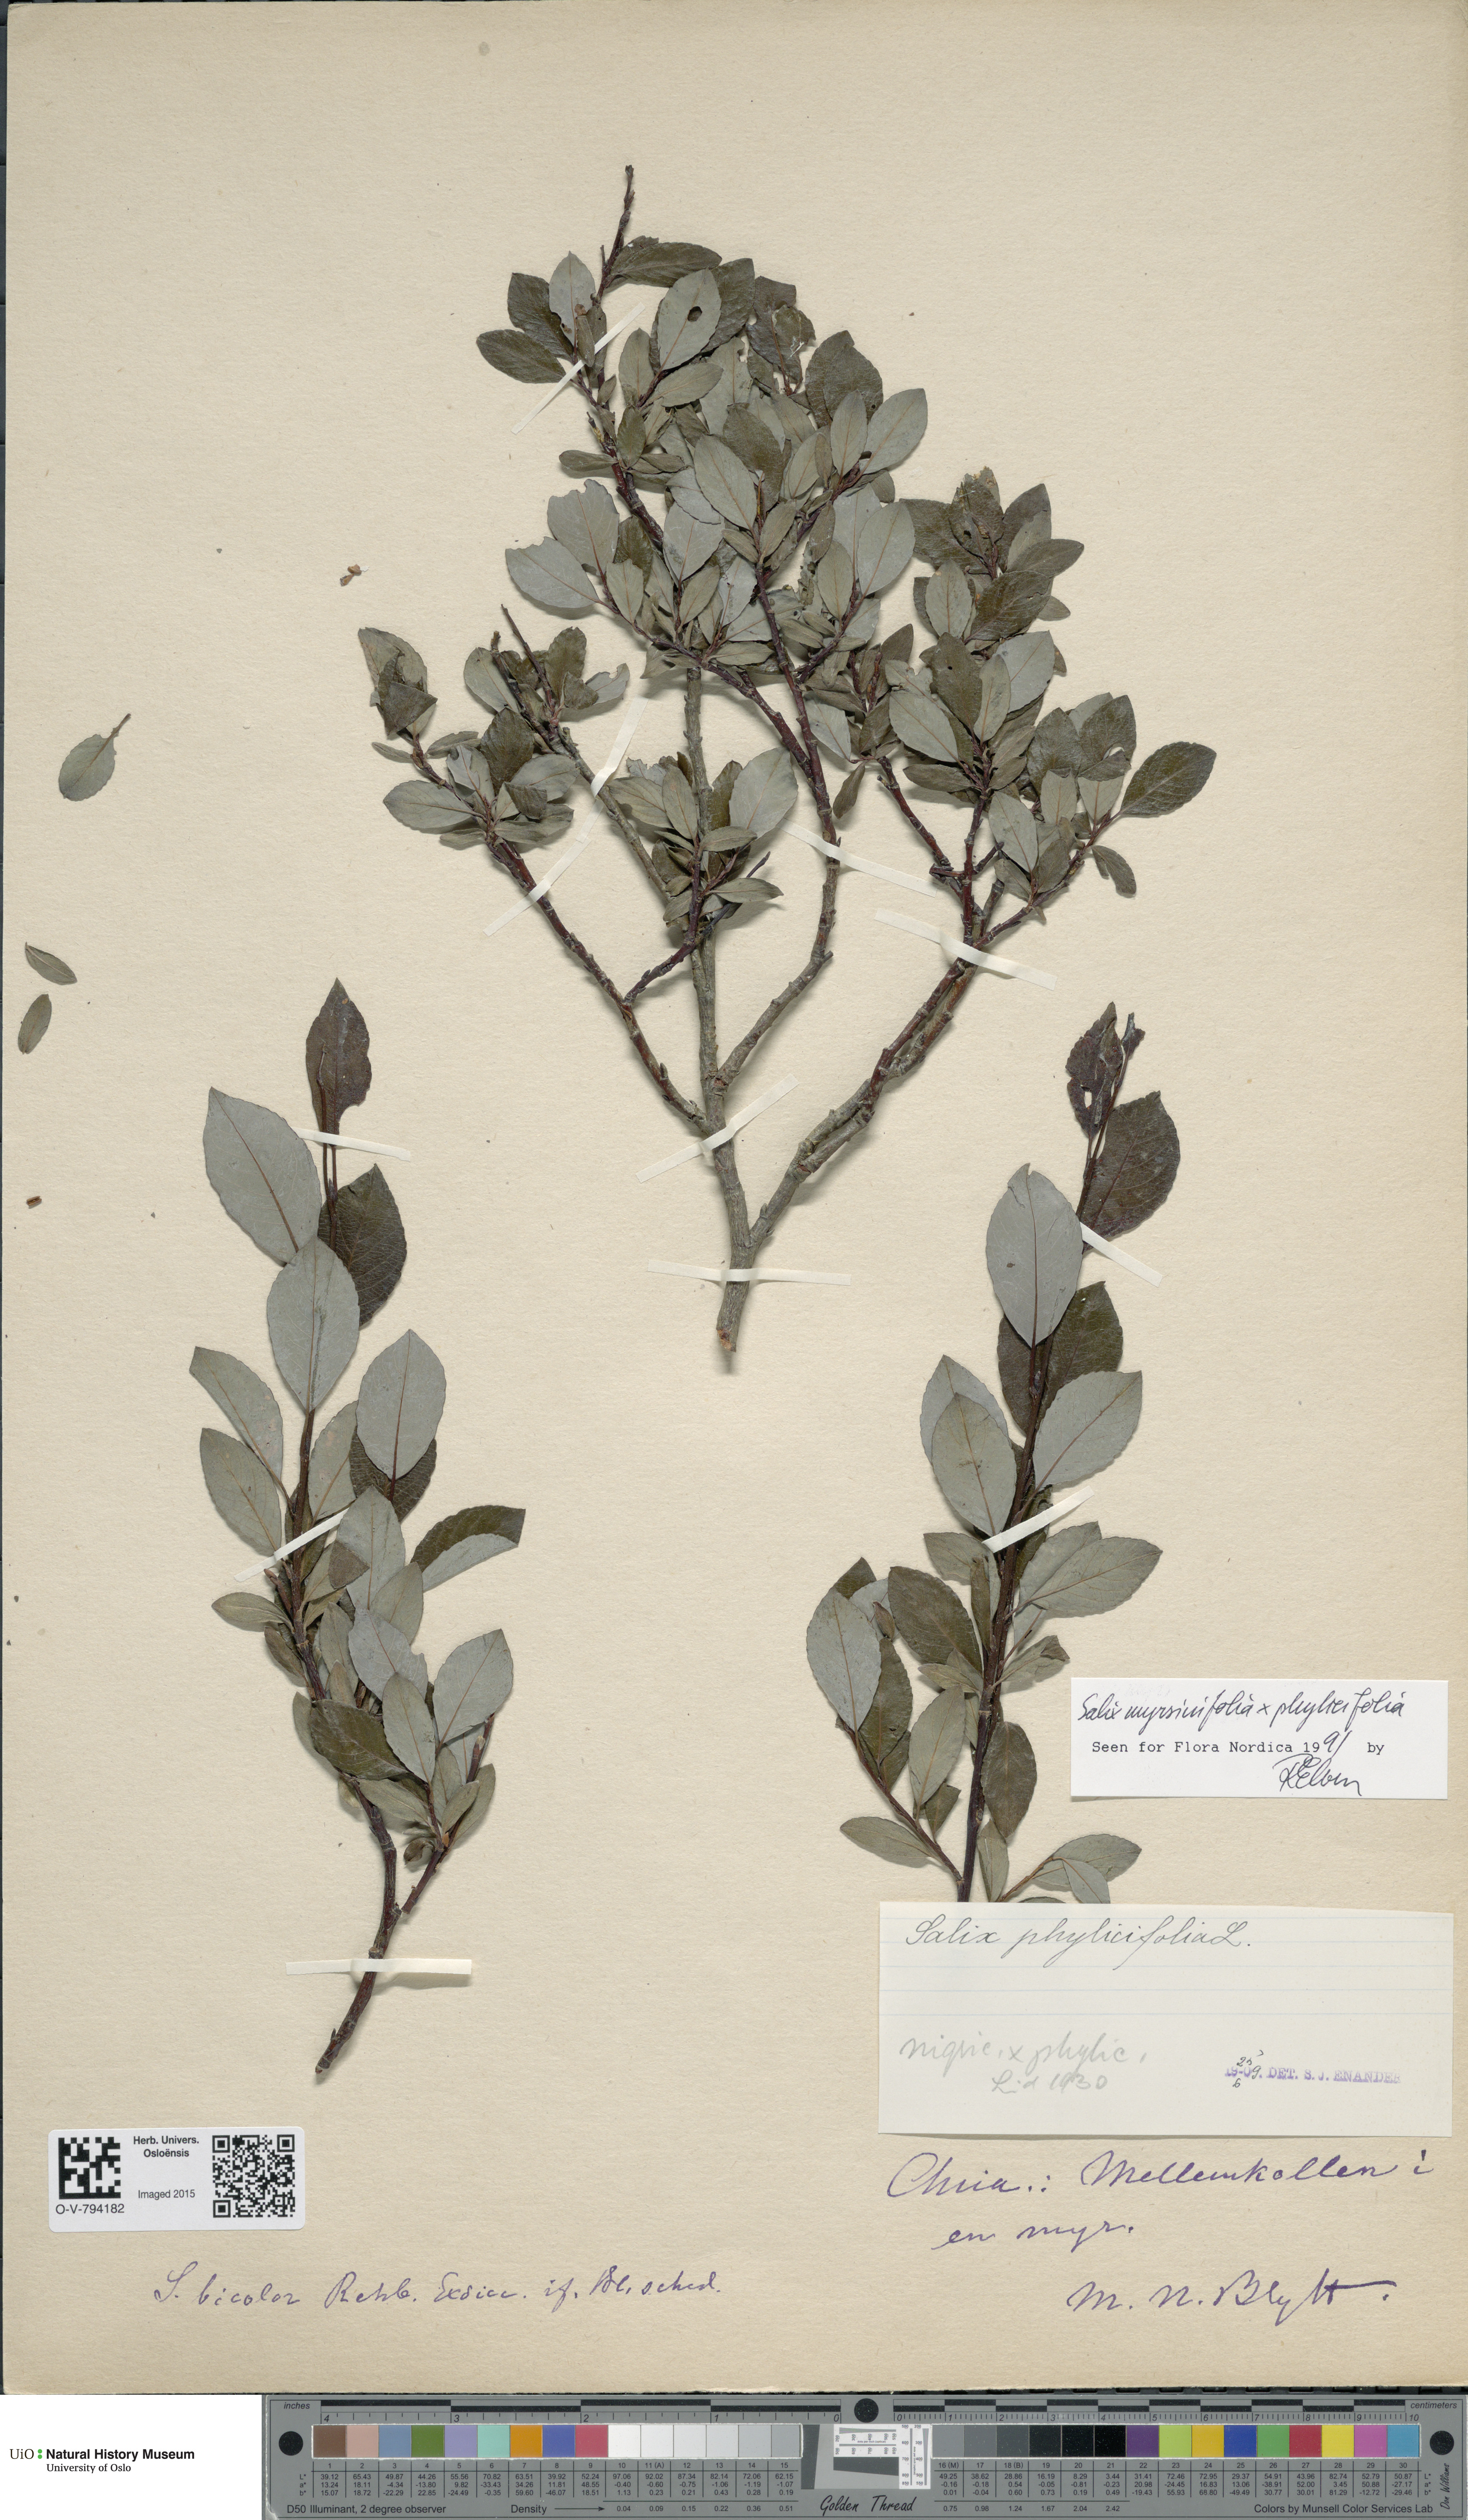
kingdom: Plantae
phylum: Tracheophyta
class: Magnoliopsida
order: Malpighiales
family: Salicaceae
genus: Salix
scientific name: Salix
